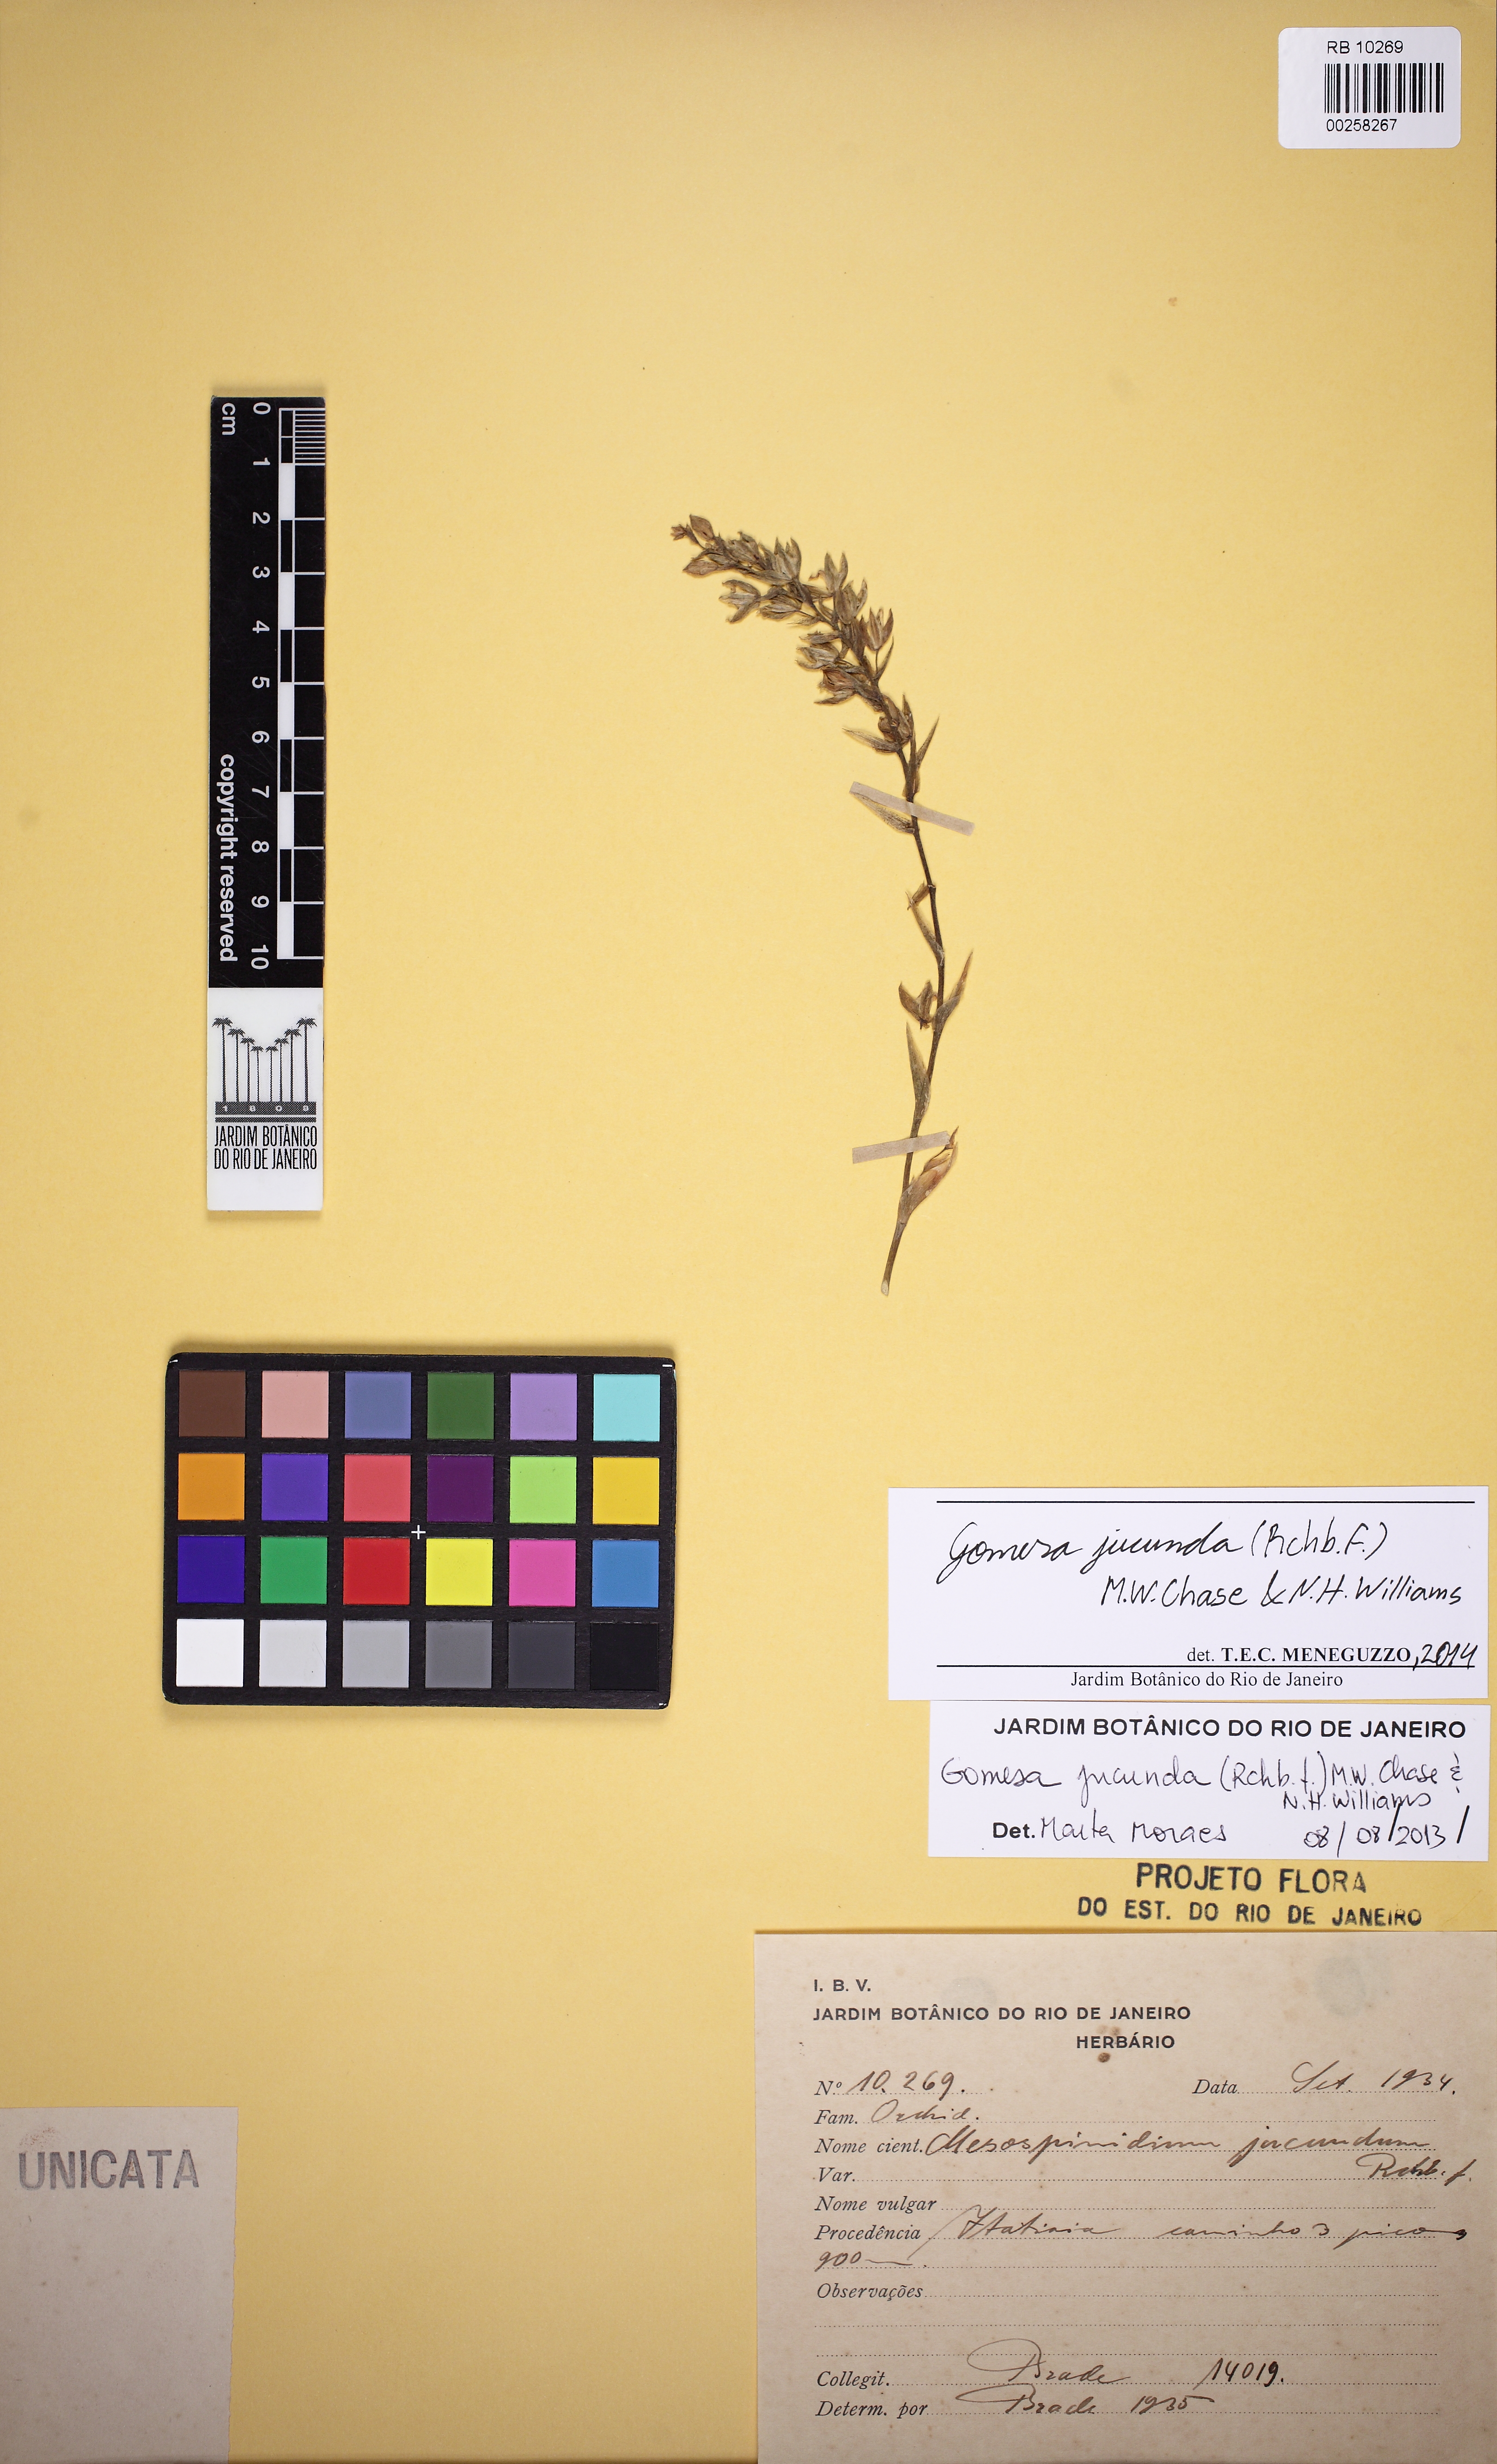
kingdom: Plantae
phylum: Tracheophyta
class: Liliopsida
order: Asparagales
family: Orchidaceae
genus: Gomesa
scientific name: Gomesa jucunda
